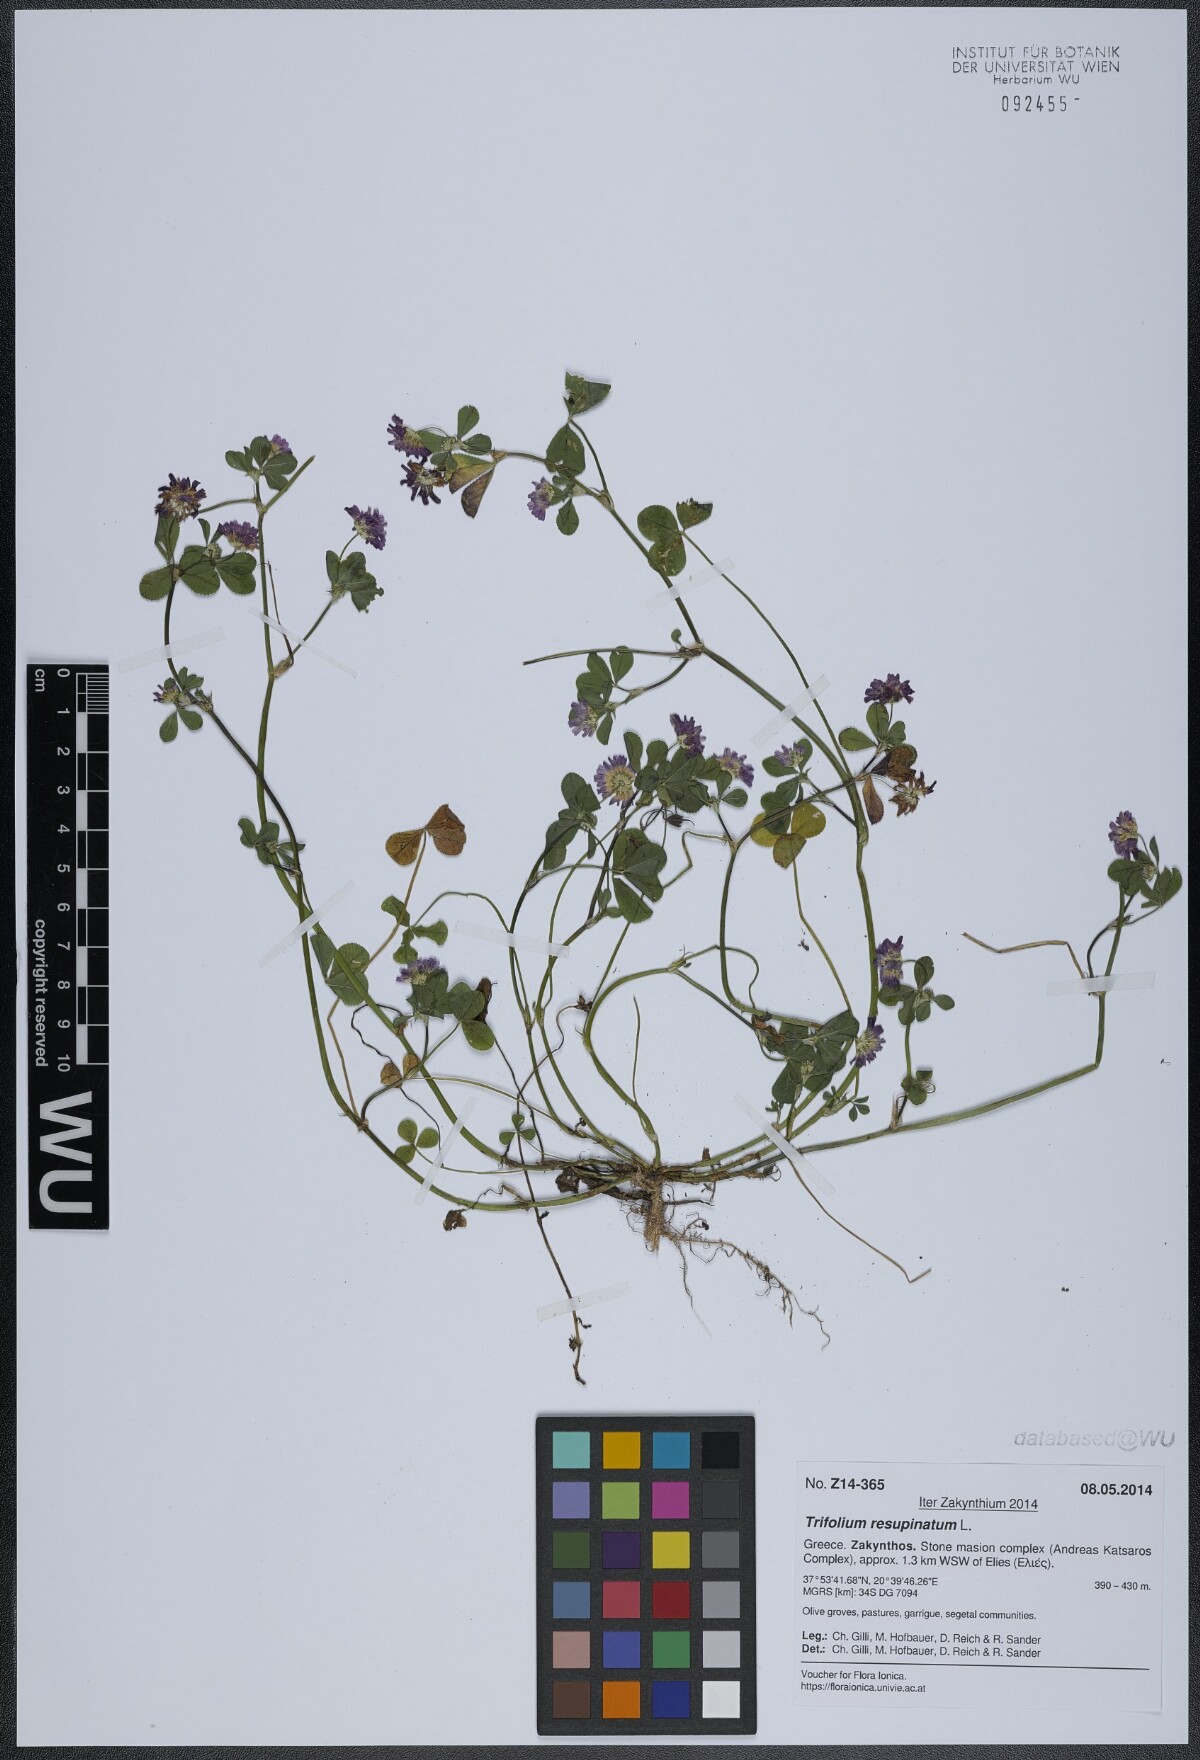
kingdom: Plantae
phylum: Tracheophyta
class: Magnoliopsida
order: Fabales
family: Fabaceae
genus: Trifolium
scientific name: Trifolium resupinatum
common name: Reversed clover
